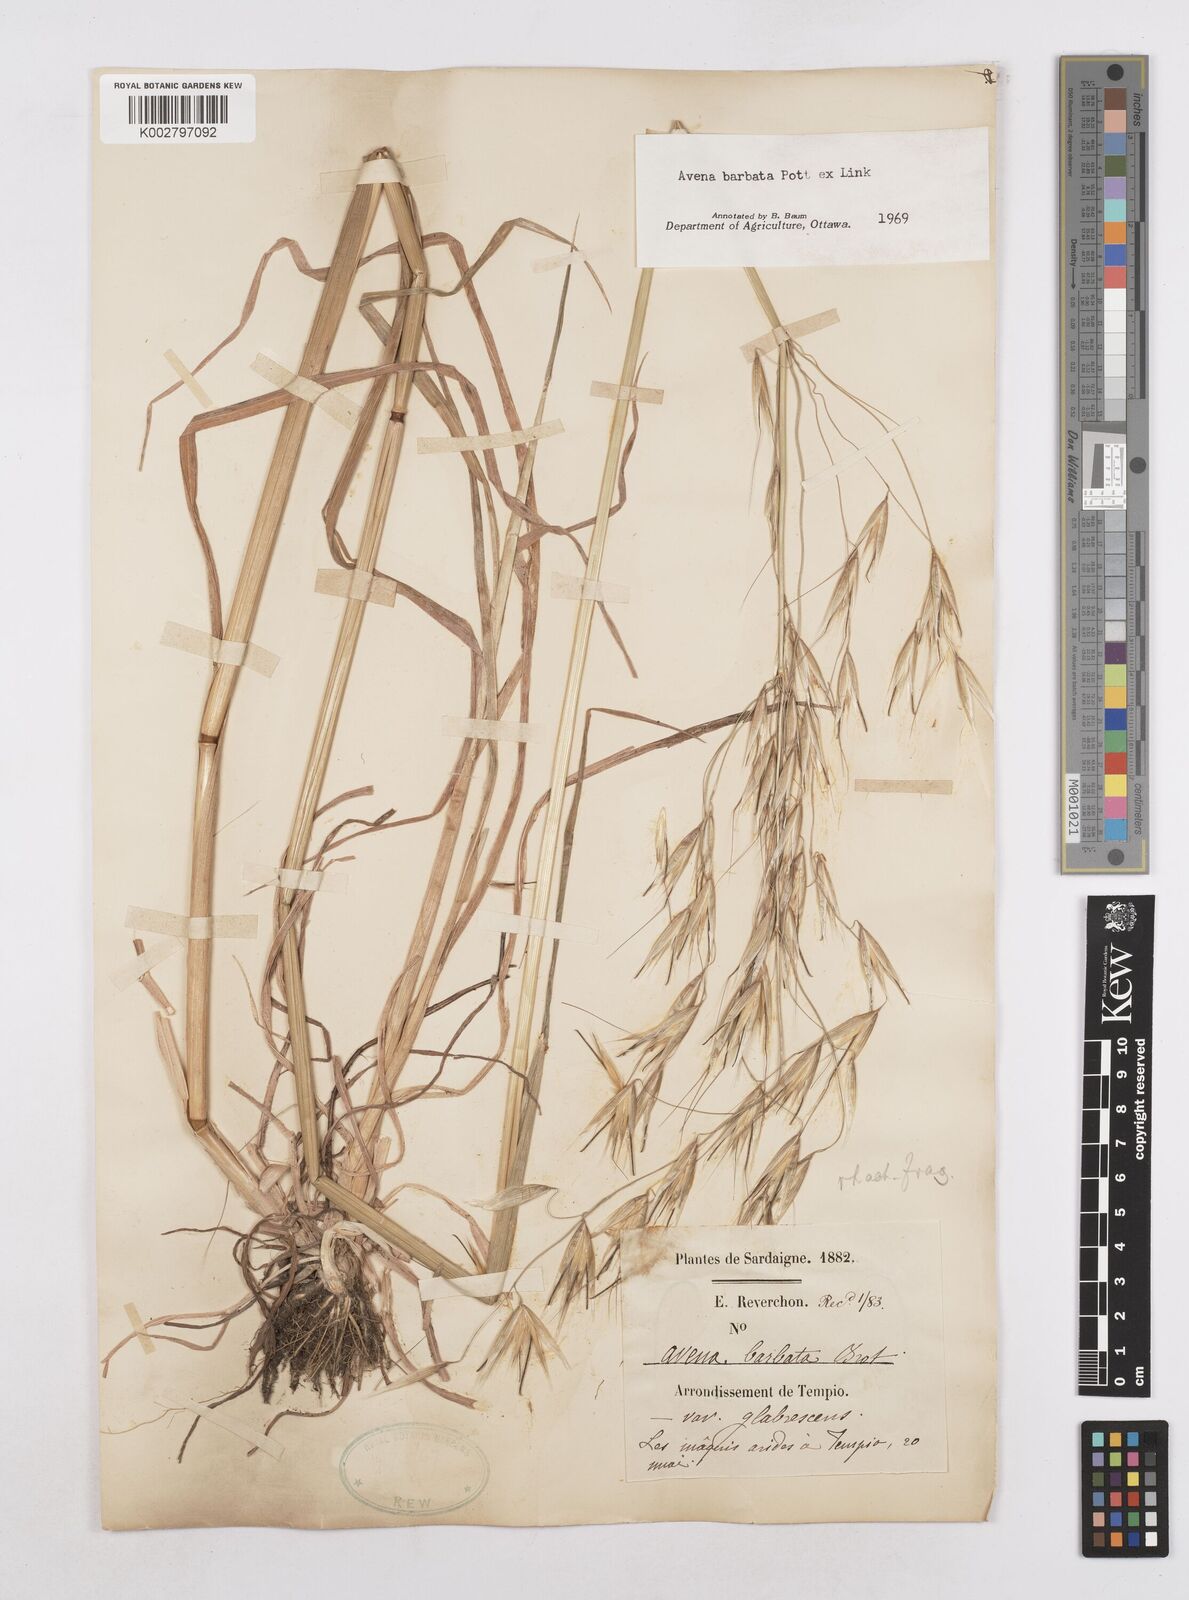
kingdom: Plantae
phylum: Tracheophyta
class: Liliopsida
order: Poales
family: Poaceae
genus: Avena
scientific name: Avena
